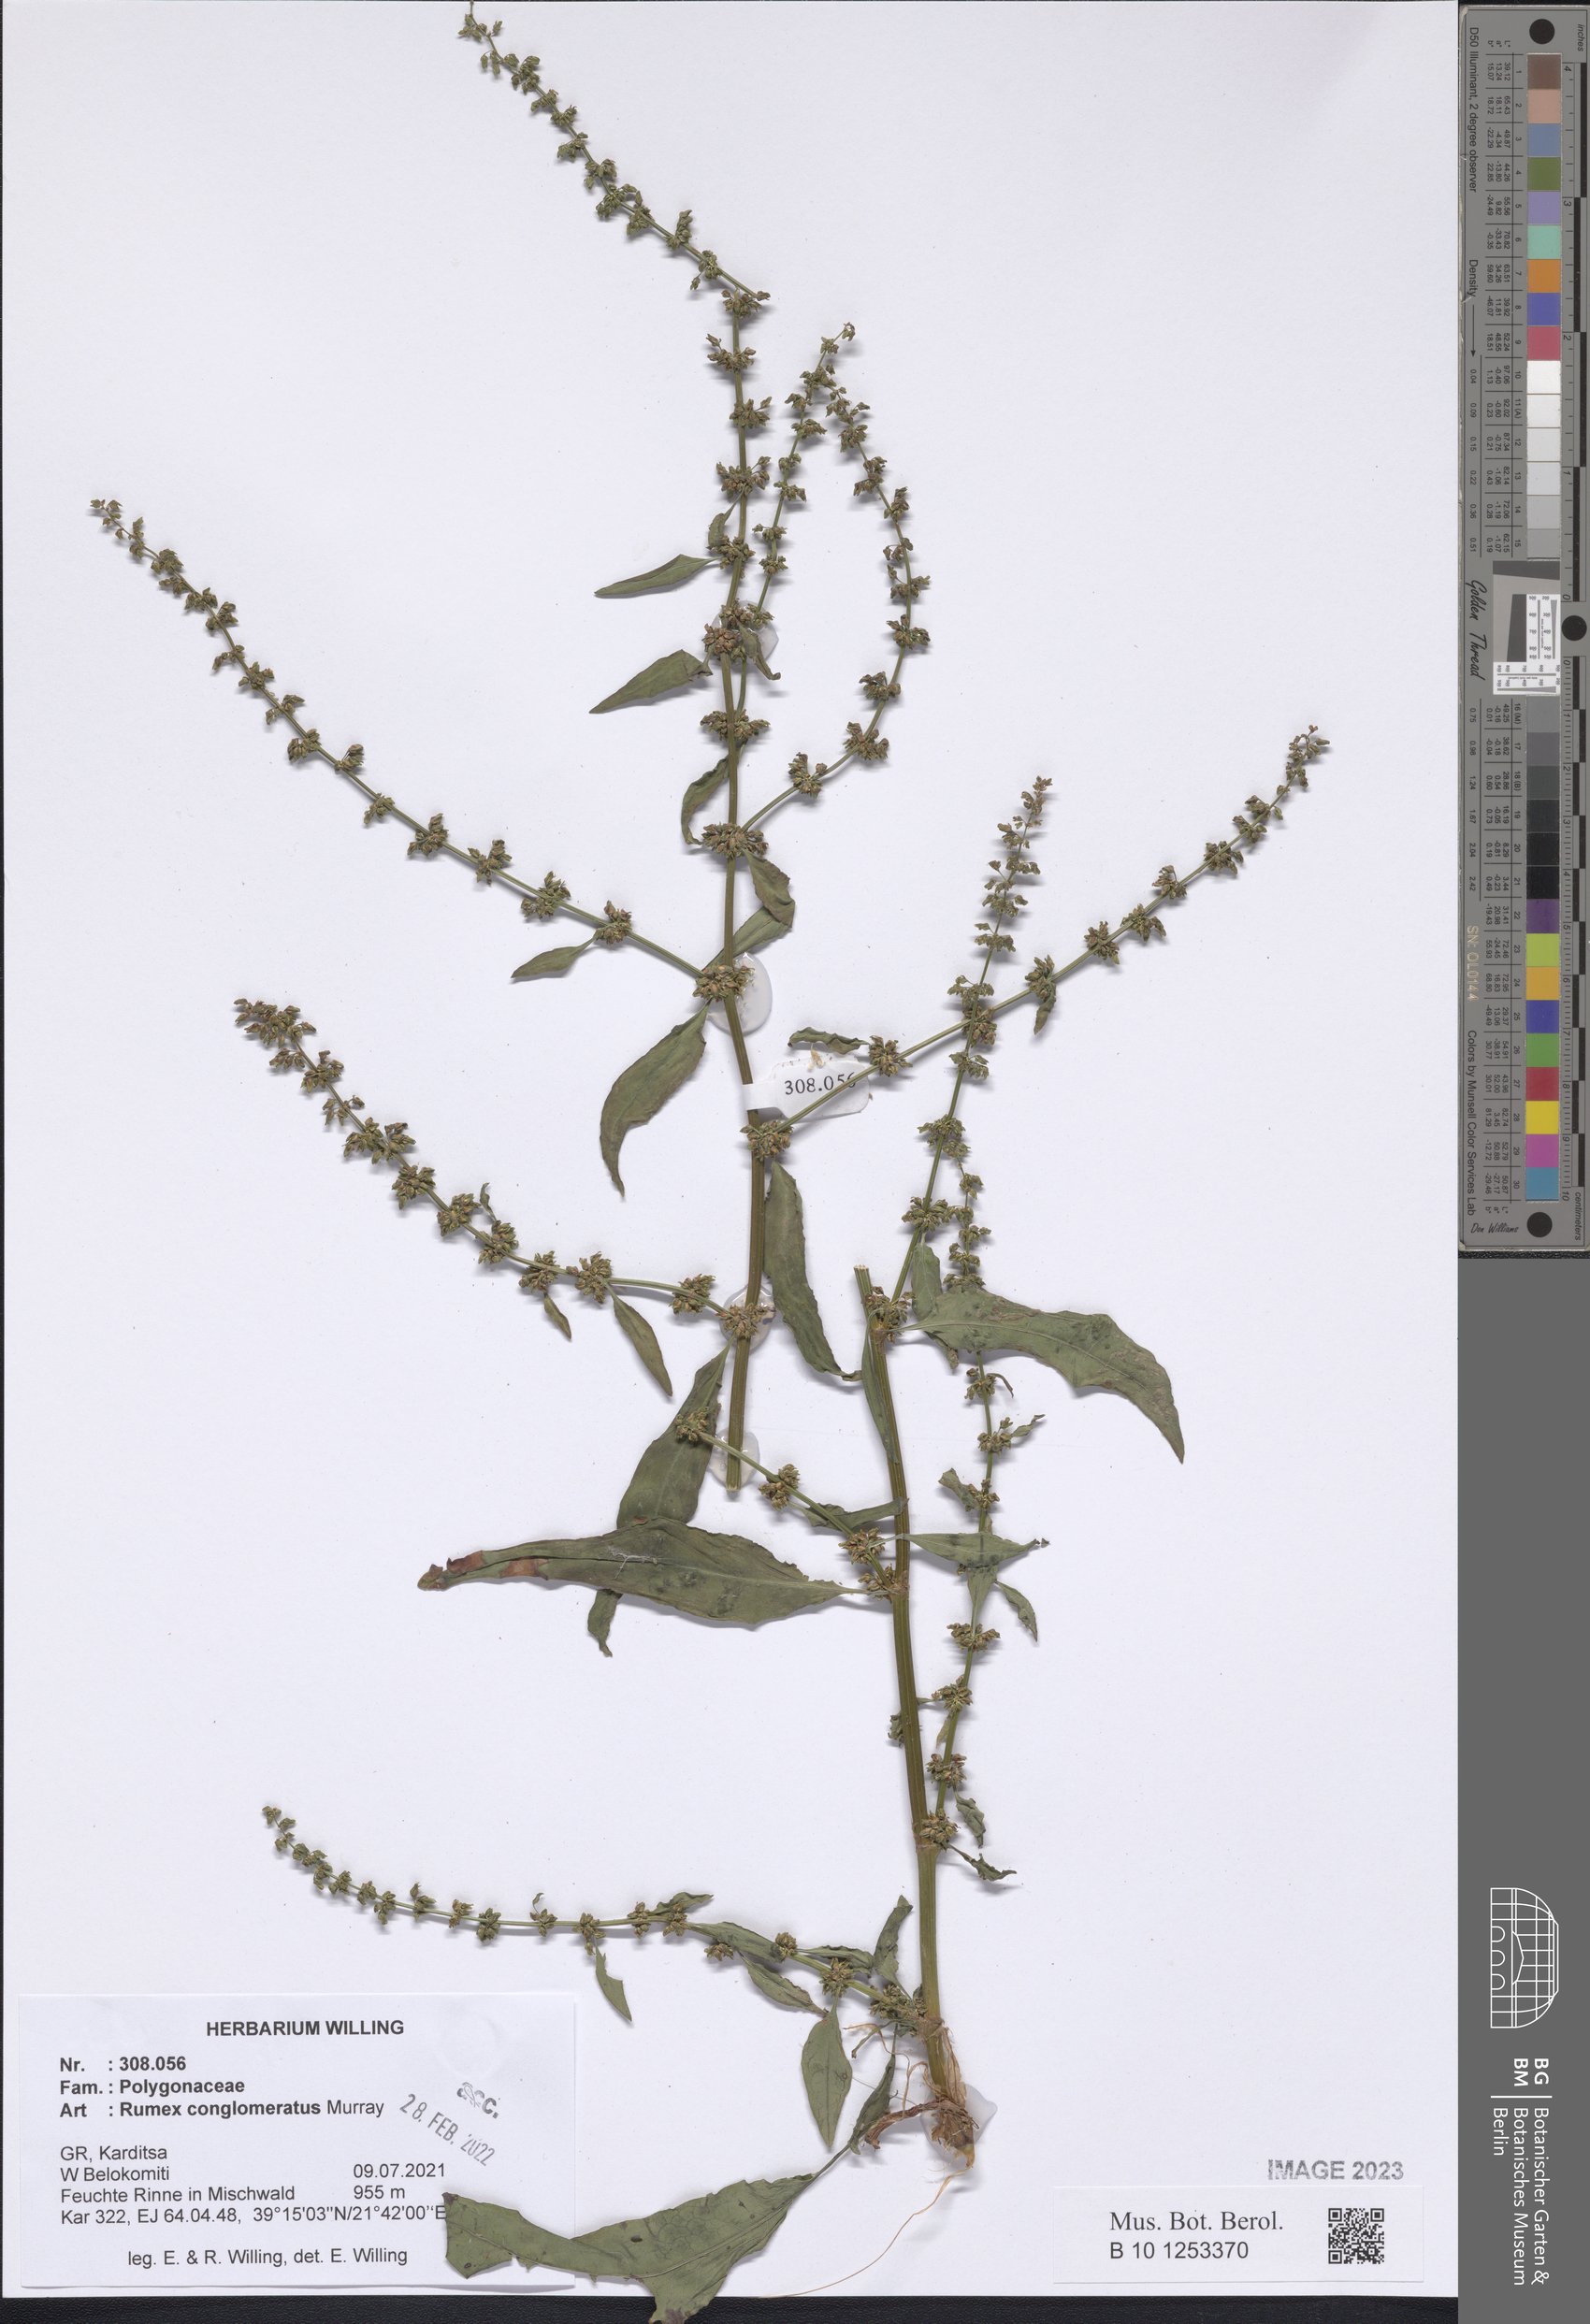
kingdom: Plantae
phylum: Tracheophyta
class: Magnoliopsida
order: Caryophyllales
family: Polygonaceae
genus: Rumex
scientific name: Rumex conglomeratus
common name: Clustered dock
